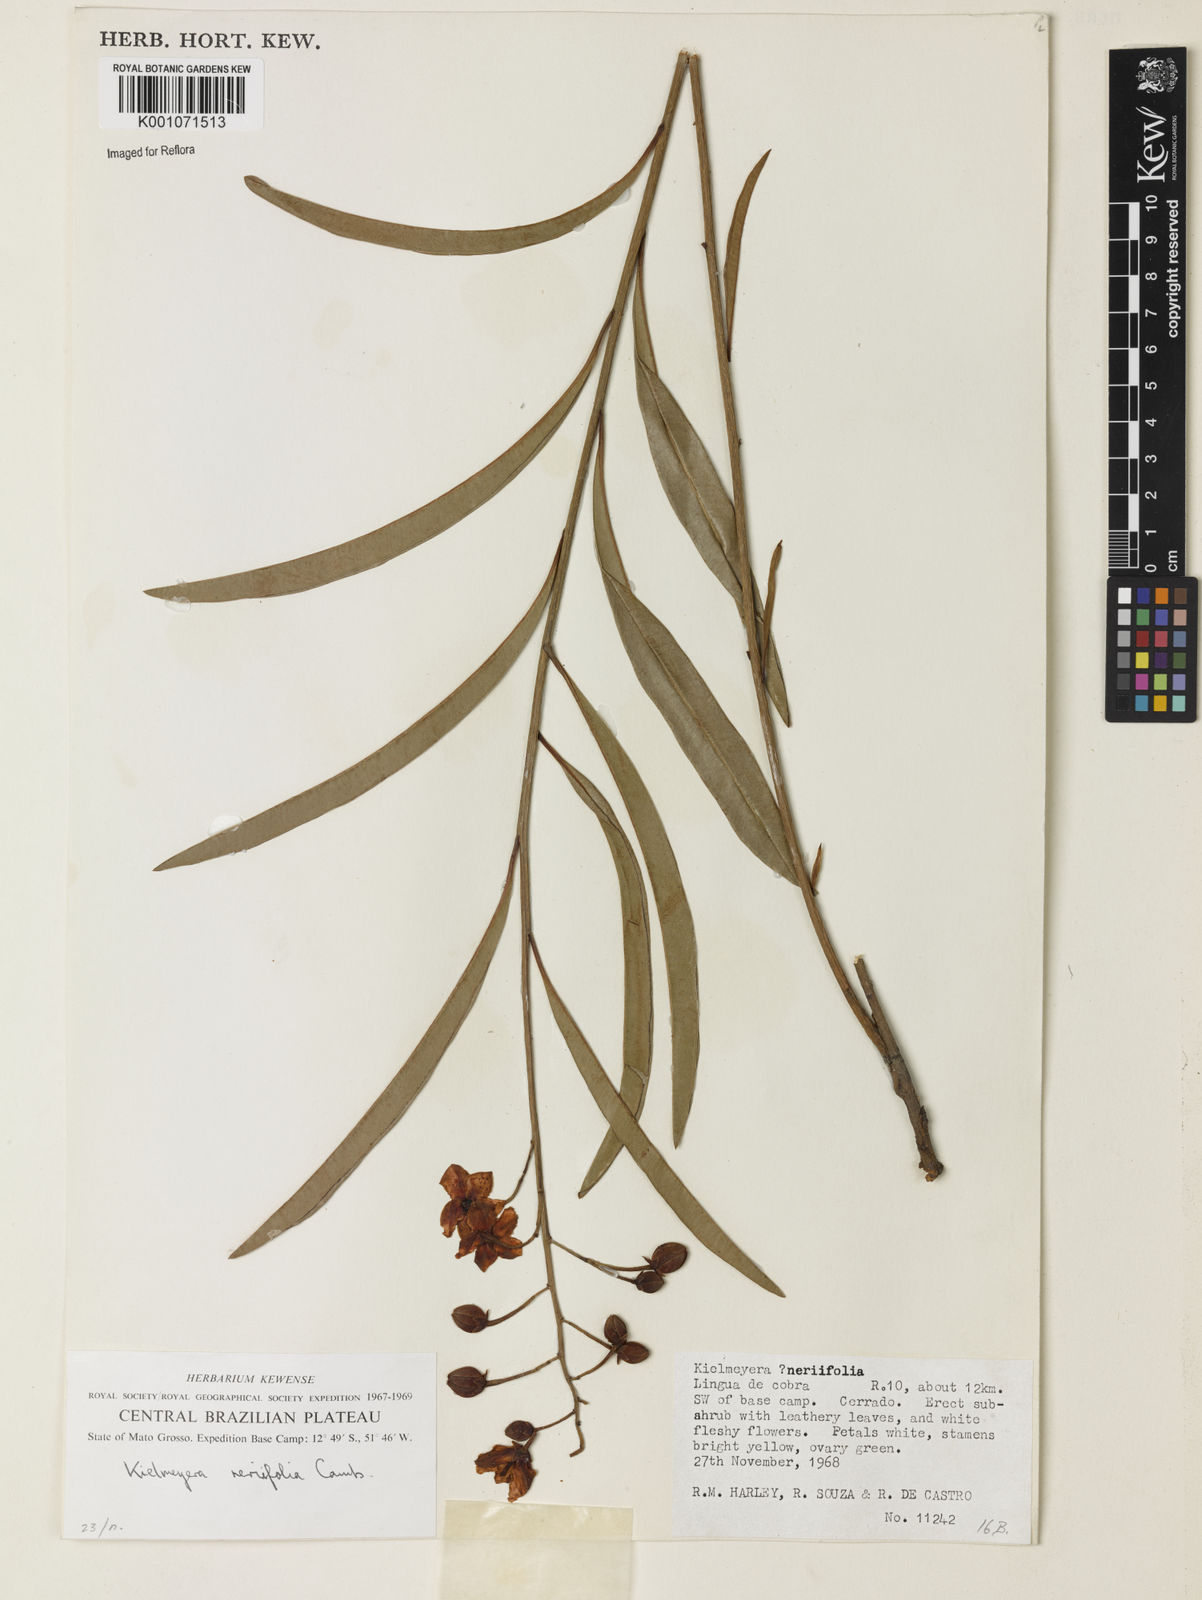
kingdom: Plantae
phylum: Tracheophyta
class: Magnoliopsida
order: Malpighiales
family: Calophyllaceae
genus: Kielmeyera
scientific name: Kielmeyera abdita
